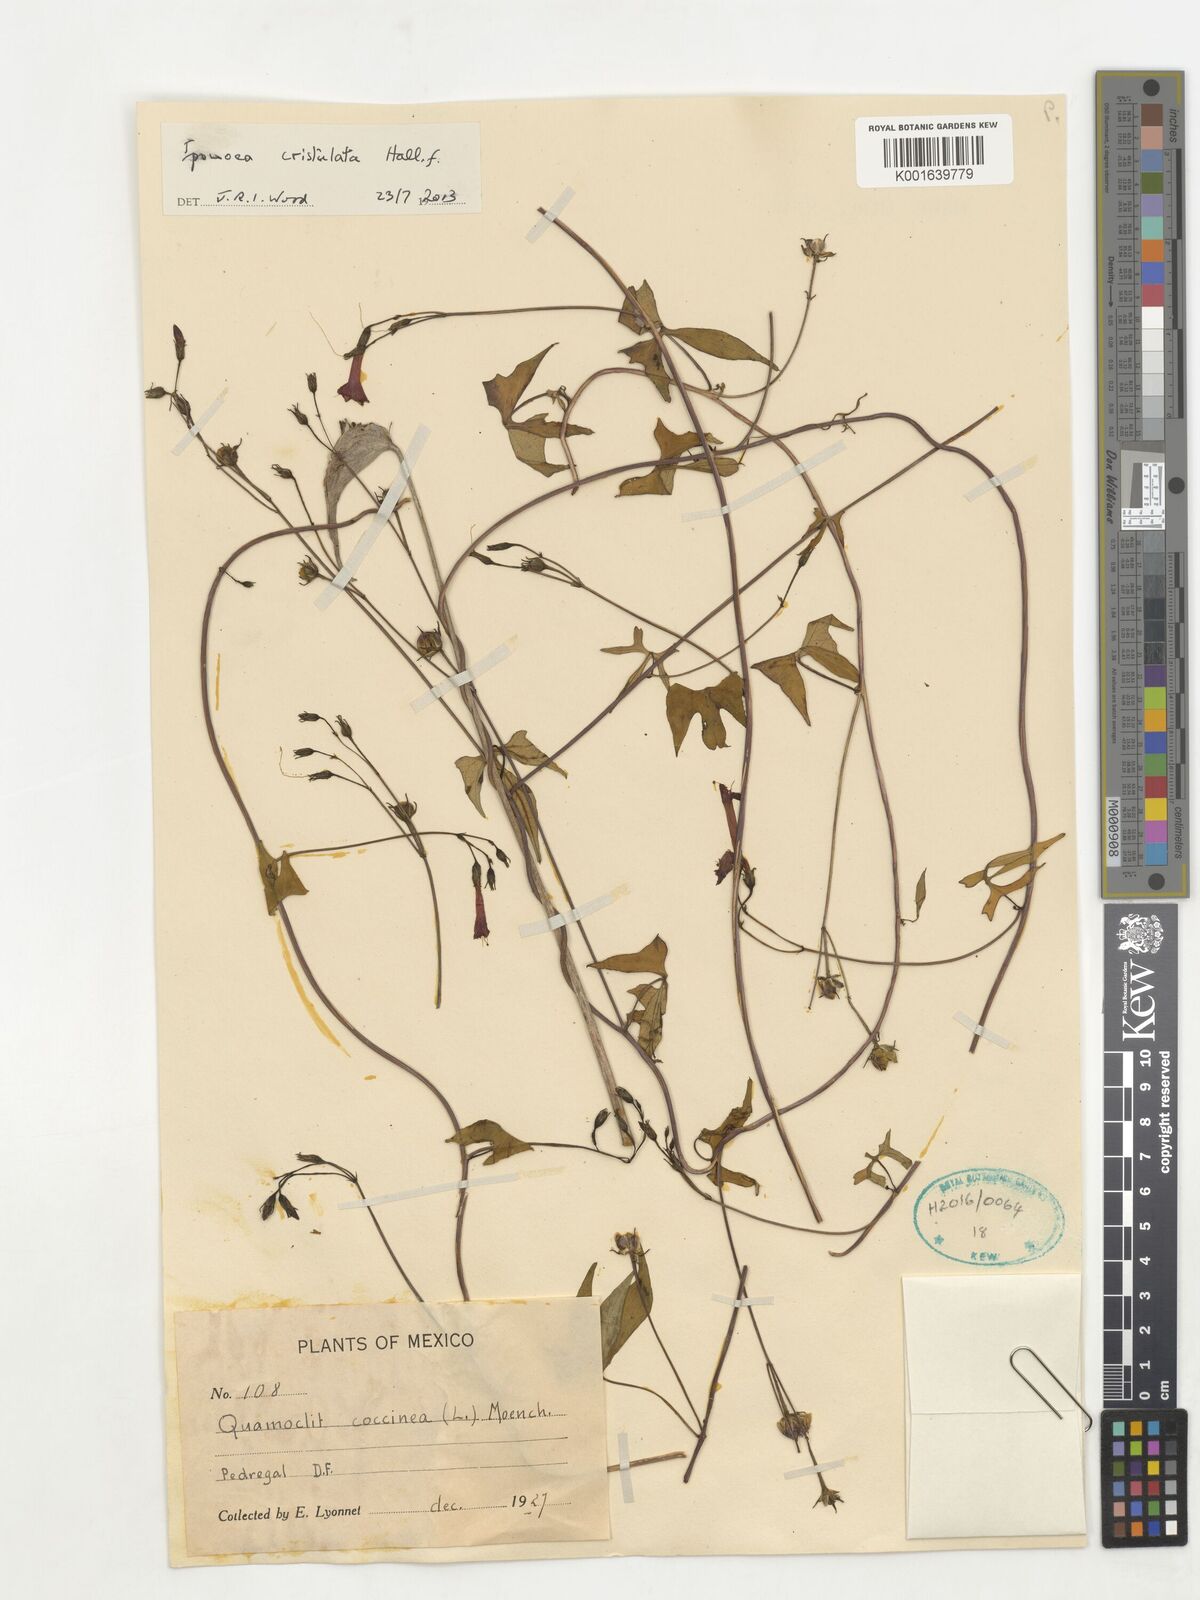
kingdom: Plantae
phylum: Tracheophyta
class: Magnoliopsida
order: Solanales
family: Convolvulaceae
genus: Ipomoea
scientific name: Ipomoea cristulata
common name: Trans-pecos morning-glory
